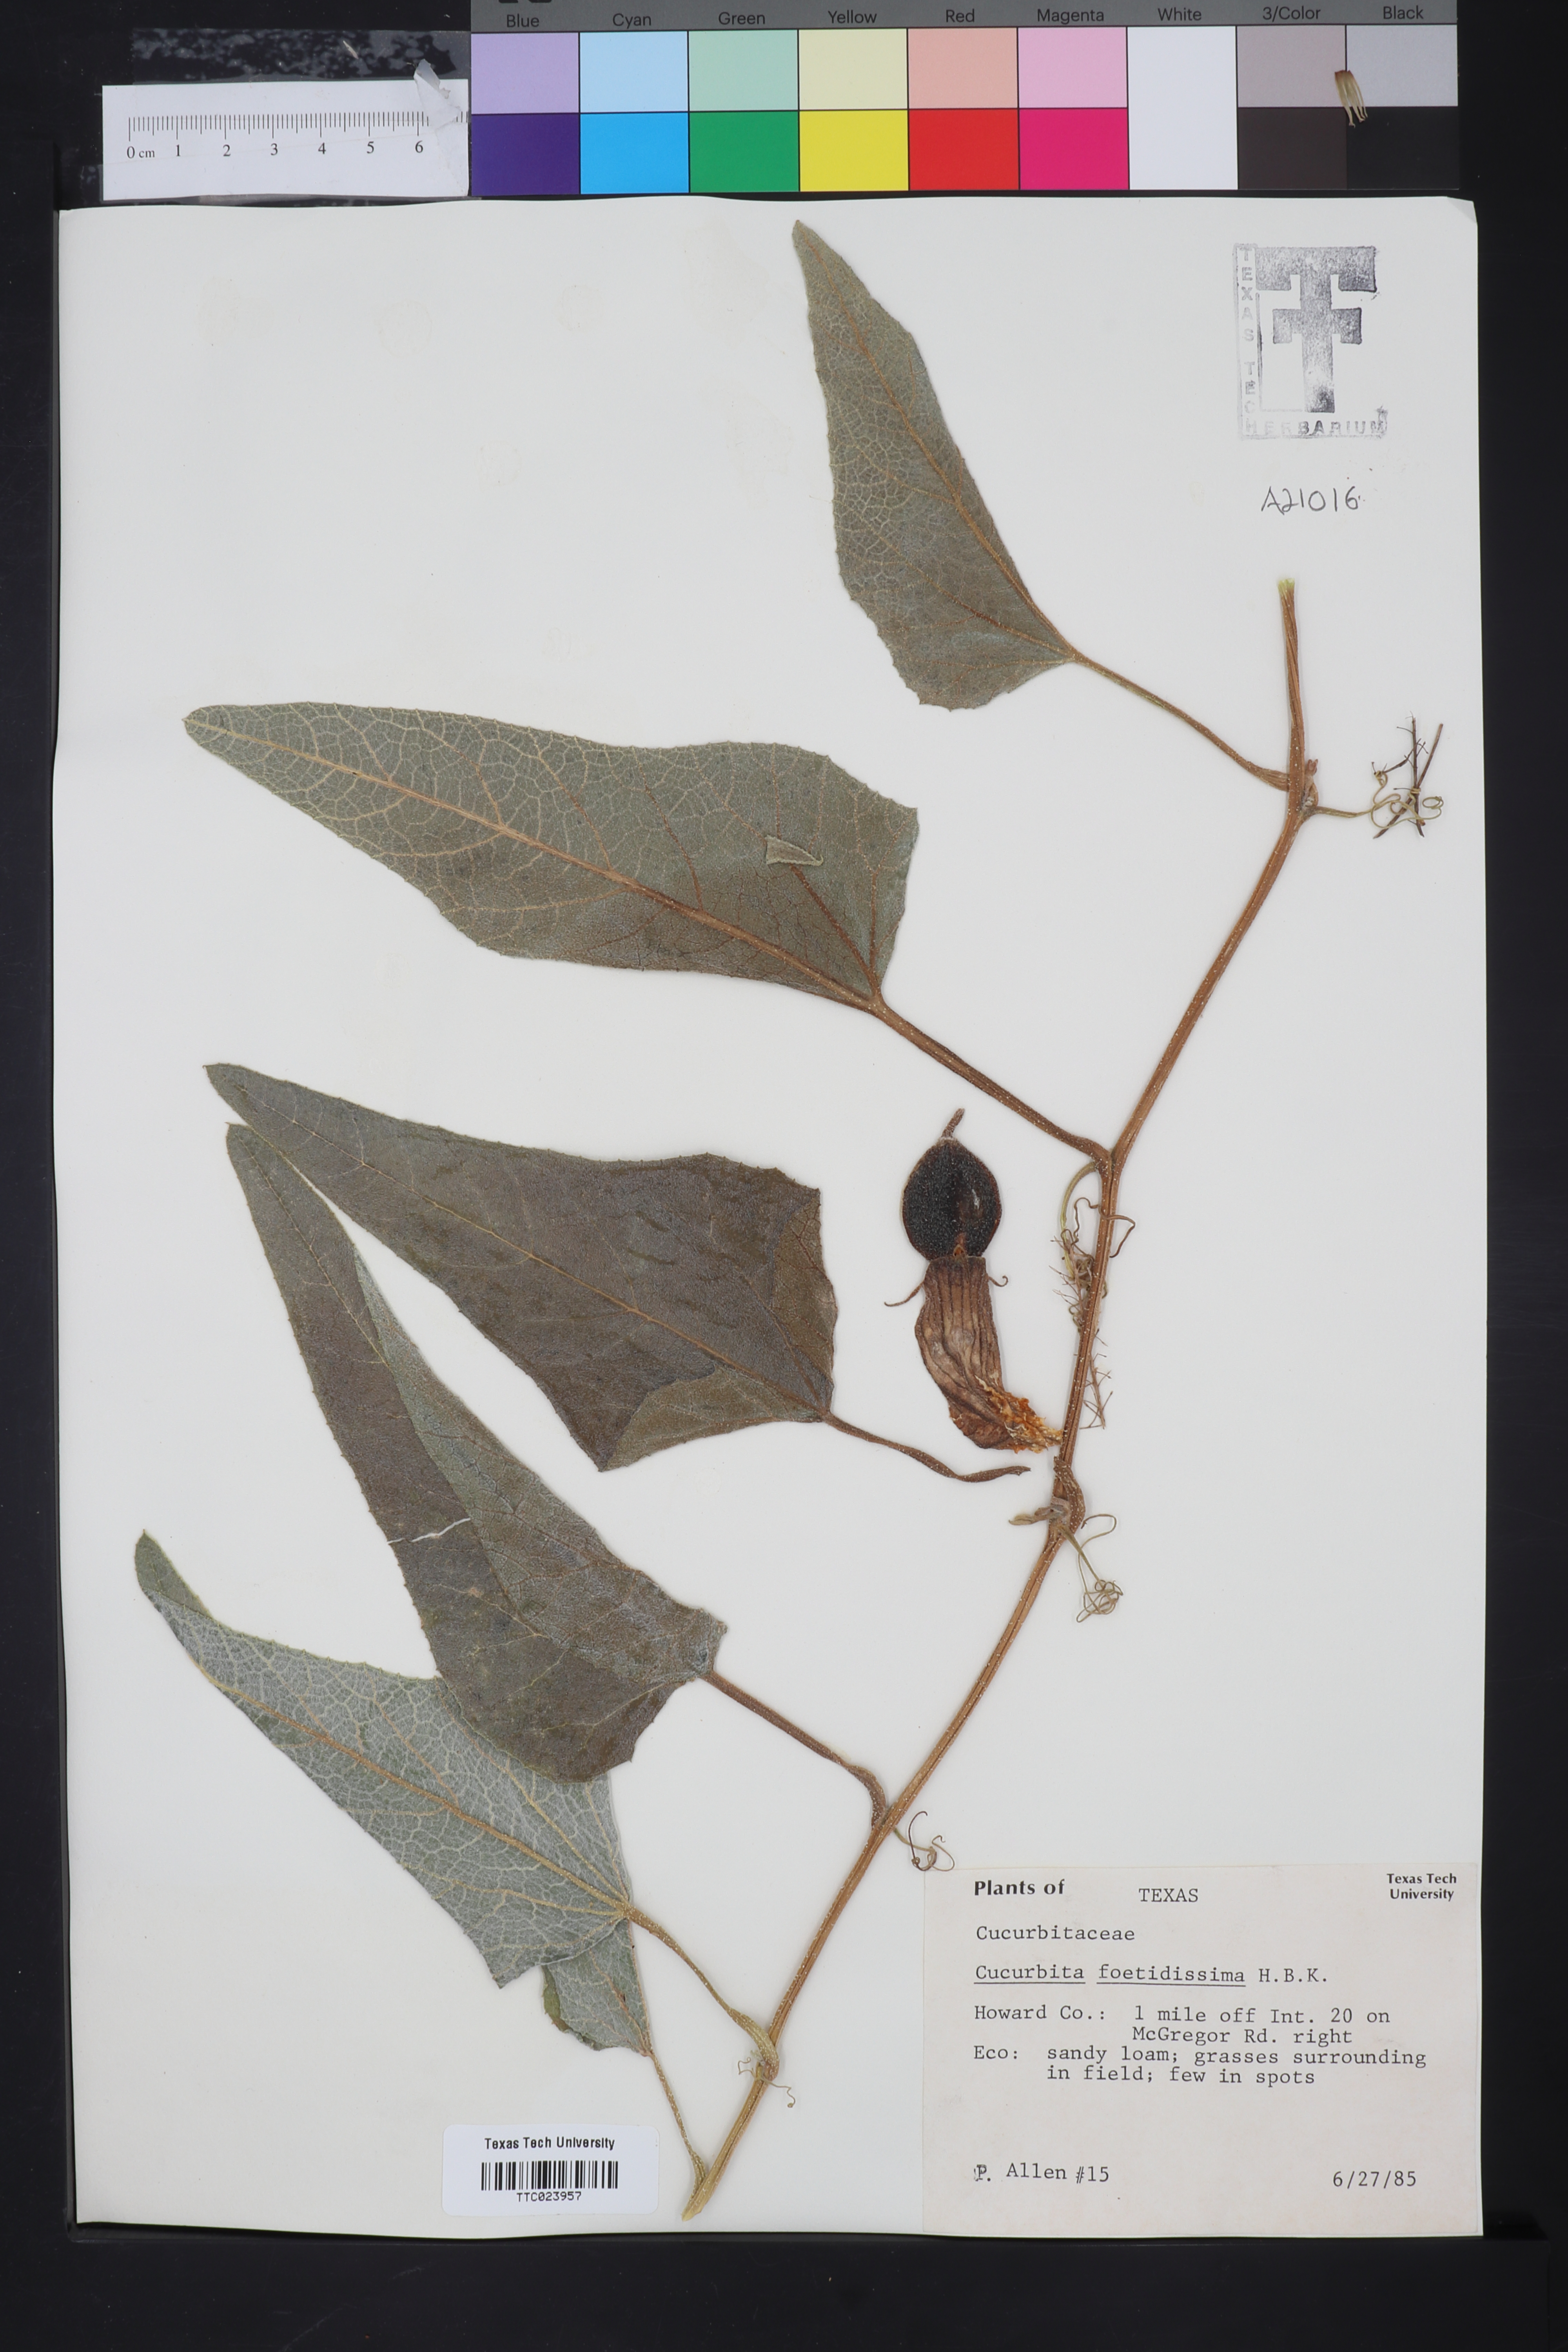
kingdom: Plantae
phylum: Tracheophyta
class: Magnoliopsida
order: Cucurbitales
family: Cucurbitaceae
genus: Cucurbita
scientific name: Cucurbita foetidissima
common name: Buffalo gourd
